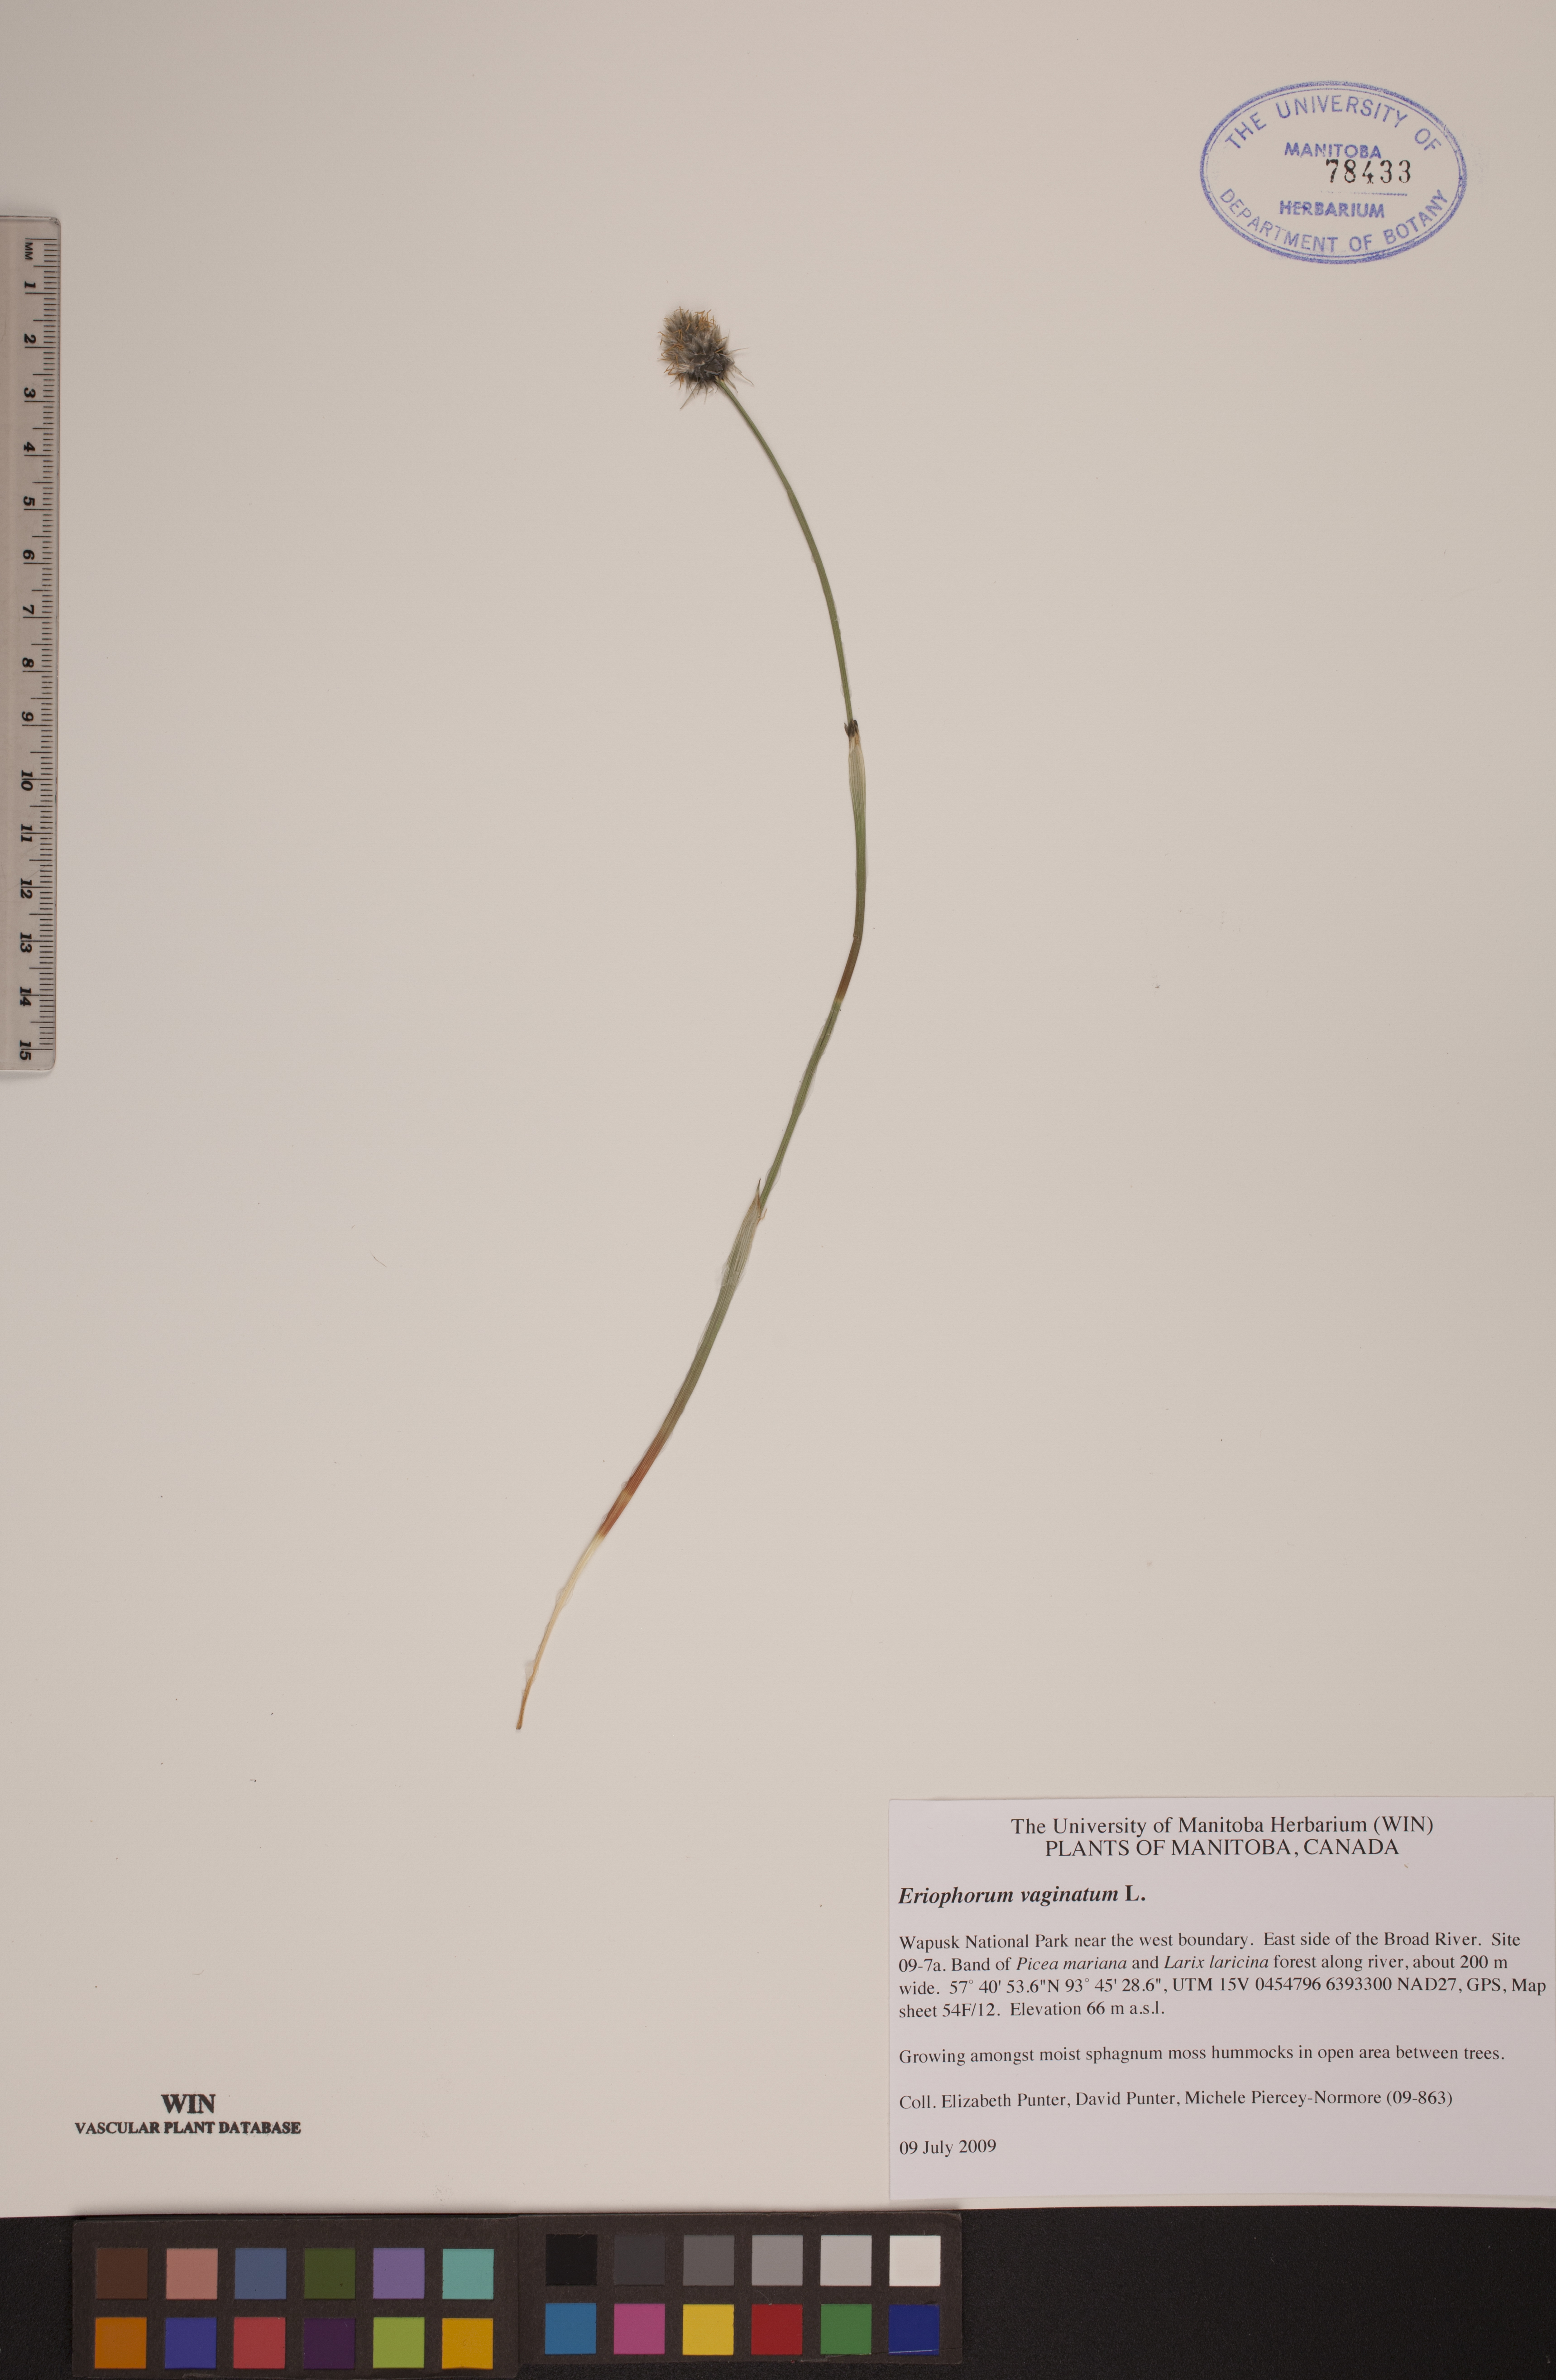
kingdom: Plantae
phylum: Tracheophyta
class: Liliopsida
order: Poales
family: Cyperaceae
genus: Eriophorum
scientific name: Eriophorum vaginatum
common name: Hare's-tail cottongrass
